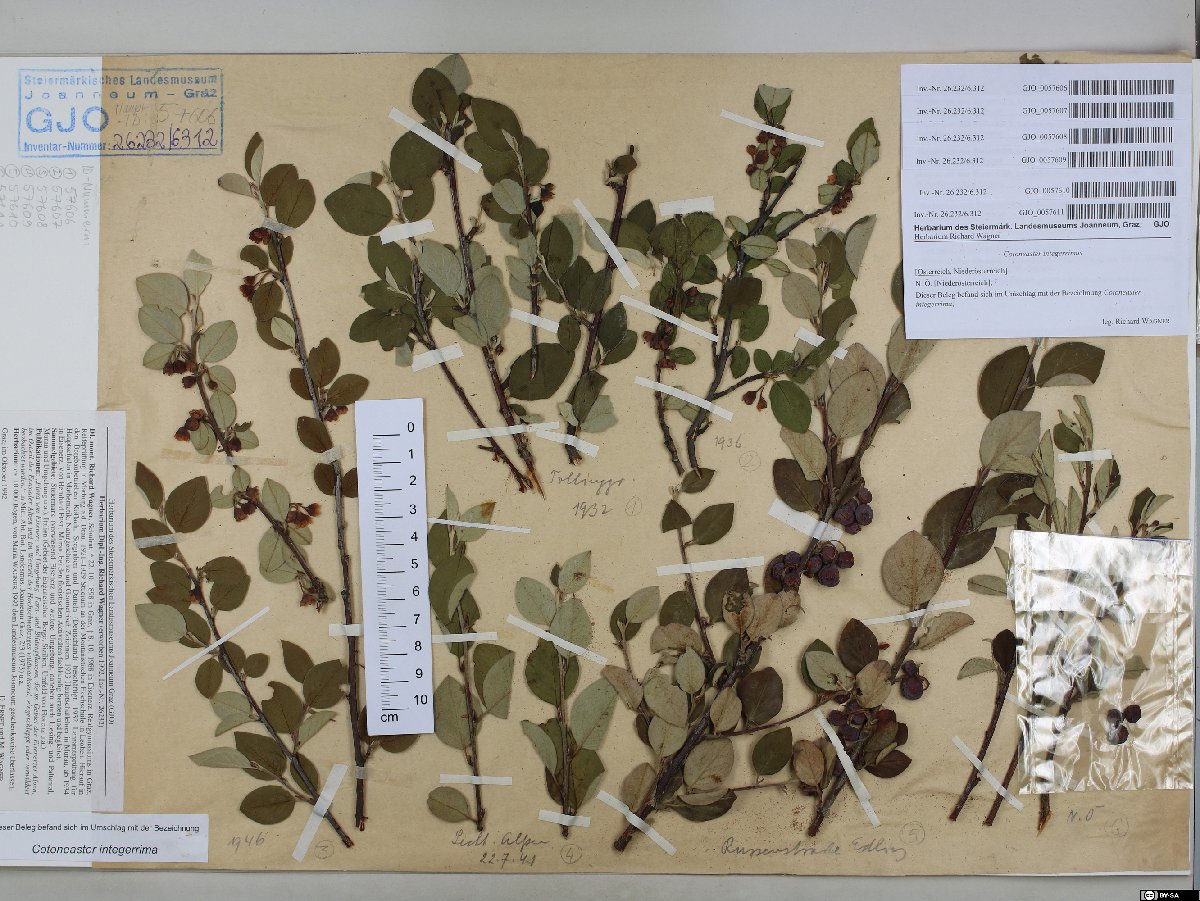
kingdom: Plantae
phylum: Tracheophyta
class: Magnoliopsida
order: Rosales
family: Rosaceae
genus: Cotoneaster
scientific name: Cotoneaster integerrimus
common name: Wild cotoneaster
